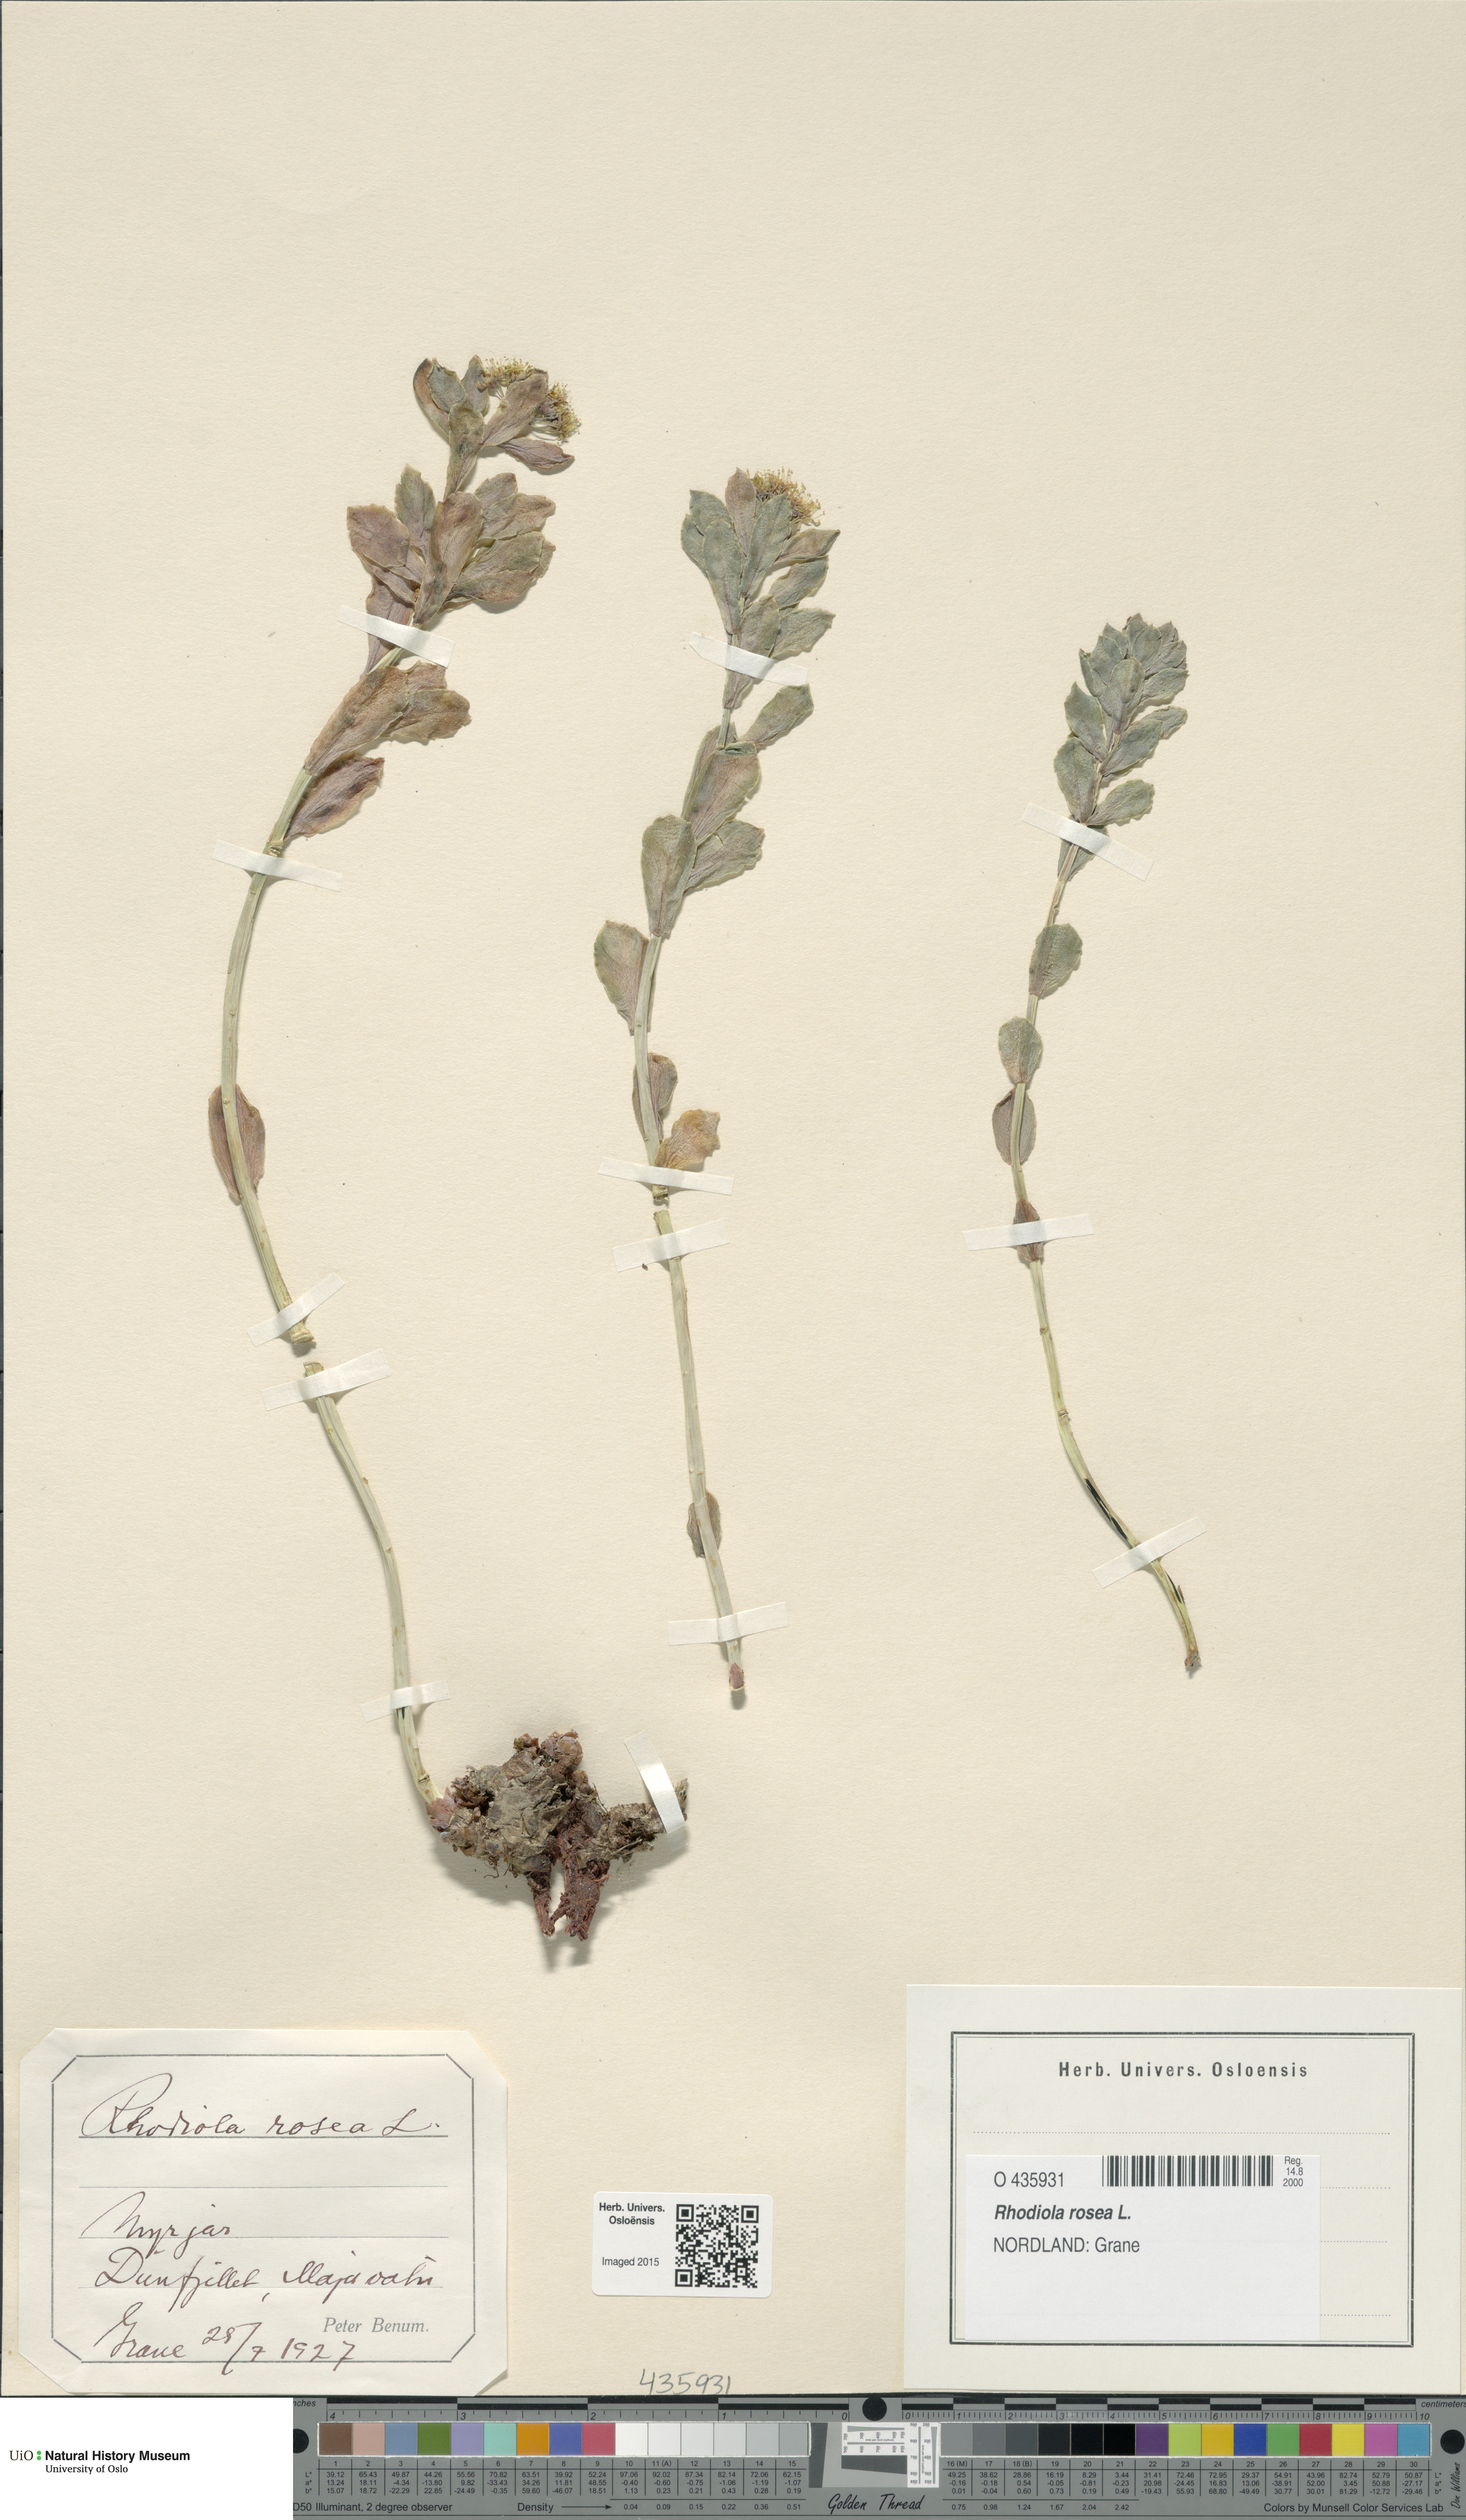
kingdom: Plantae
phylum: Tracheophyta
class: Magnoliopsida
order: Saxifragales
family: Crassulaceae
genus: Rhodiola
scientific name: Rhodiola rosea
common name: Roseroot
